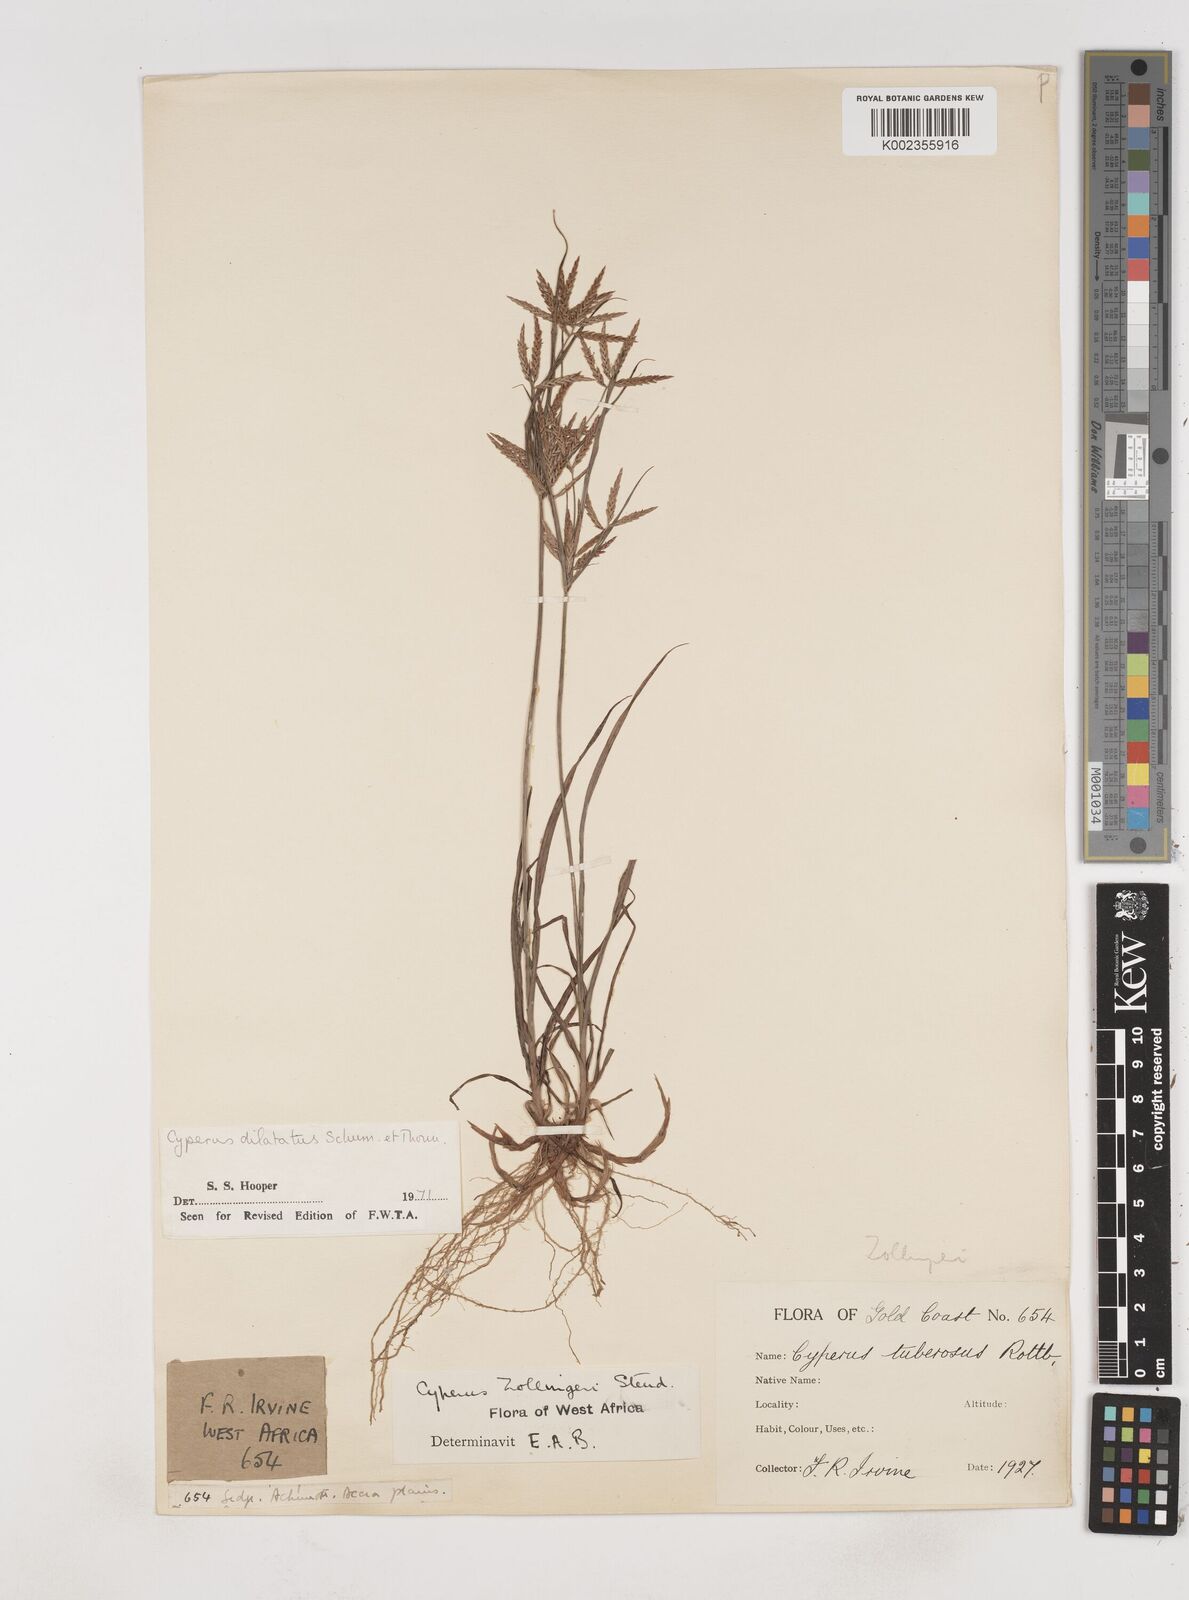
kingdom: Plantae
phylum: Tracheophyta
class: Liliopsida
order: Poales
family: Cyperaceae
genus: Cyperus
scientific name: Cyperus dilatatus
